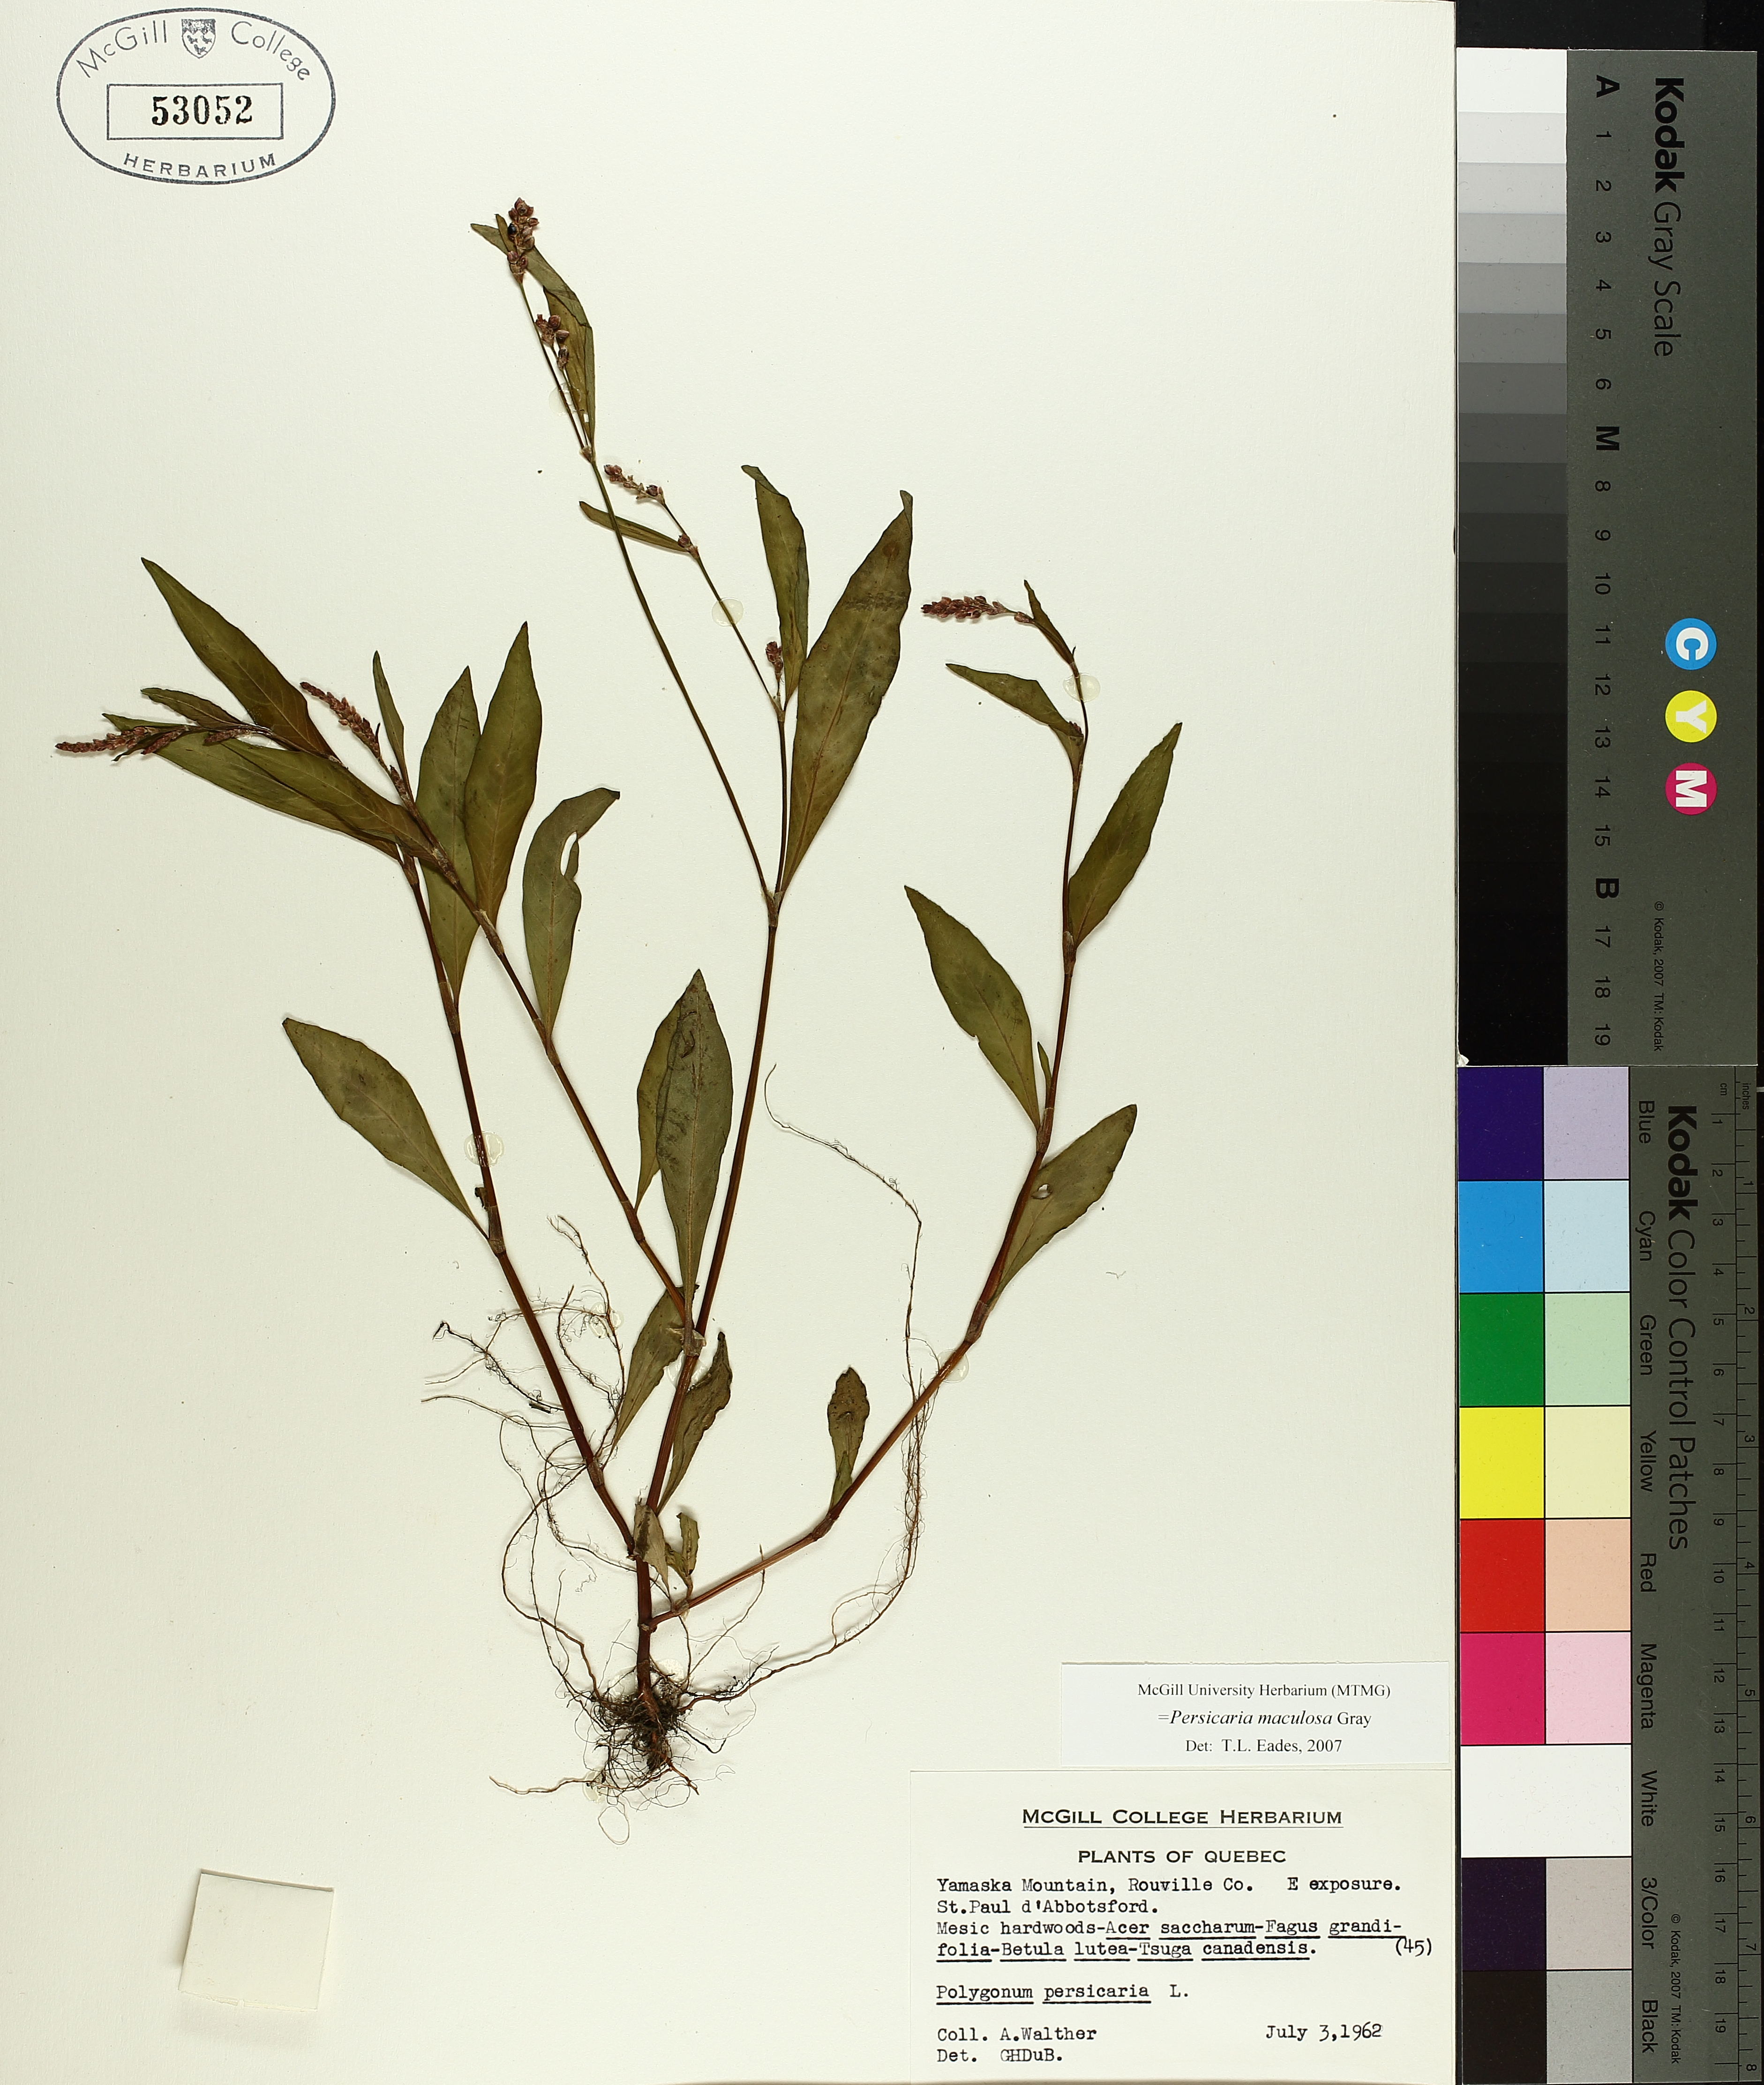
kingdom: Plantae
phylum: Tracheophyta
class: Magnoliopsida
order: Caryophyllales
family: Polygonaceae
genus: Persicaria
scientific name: Persicaria maculosa
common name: Redshank
